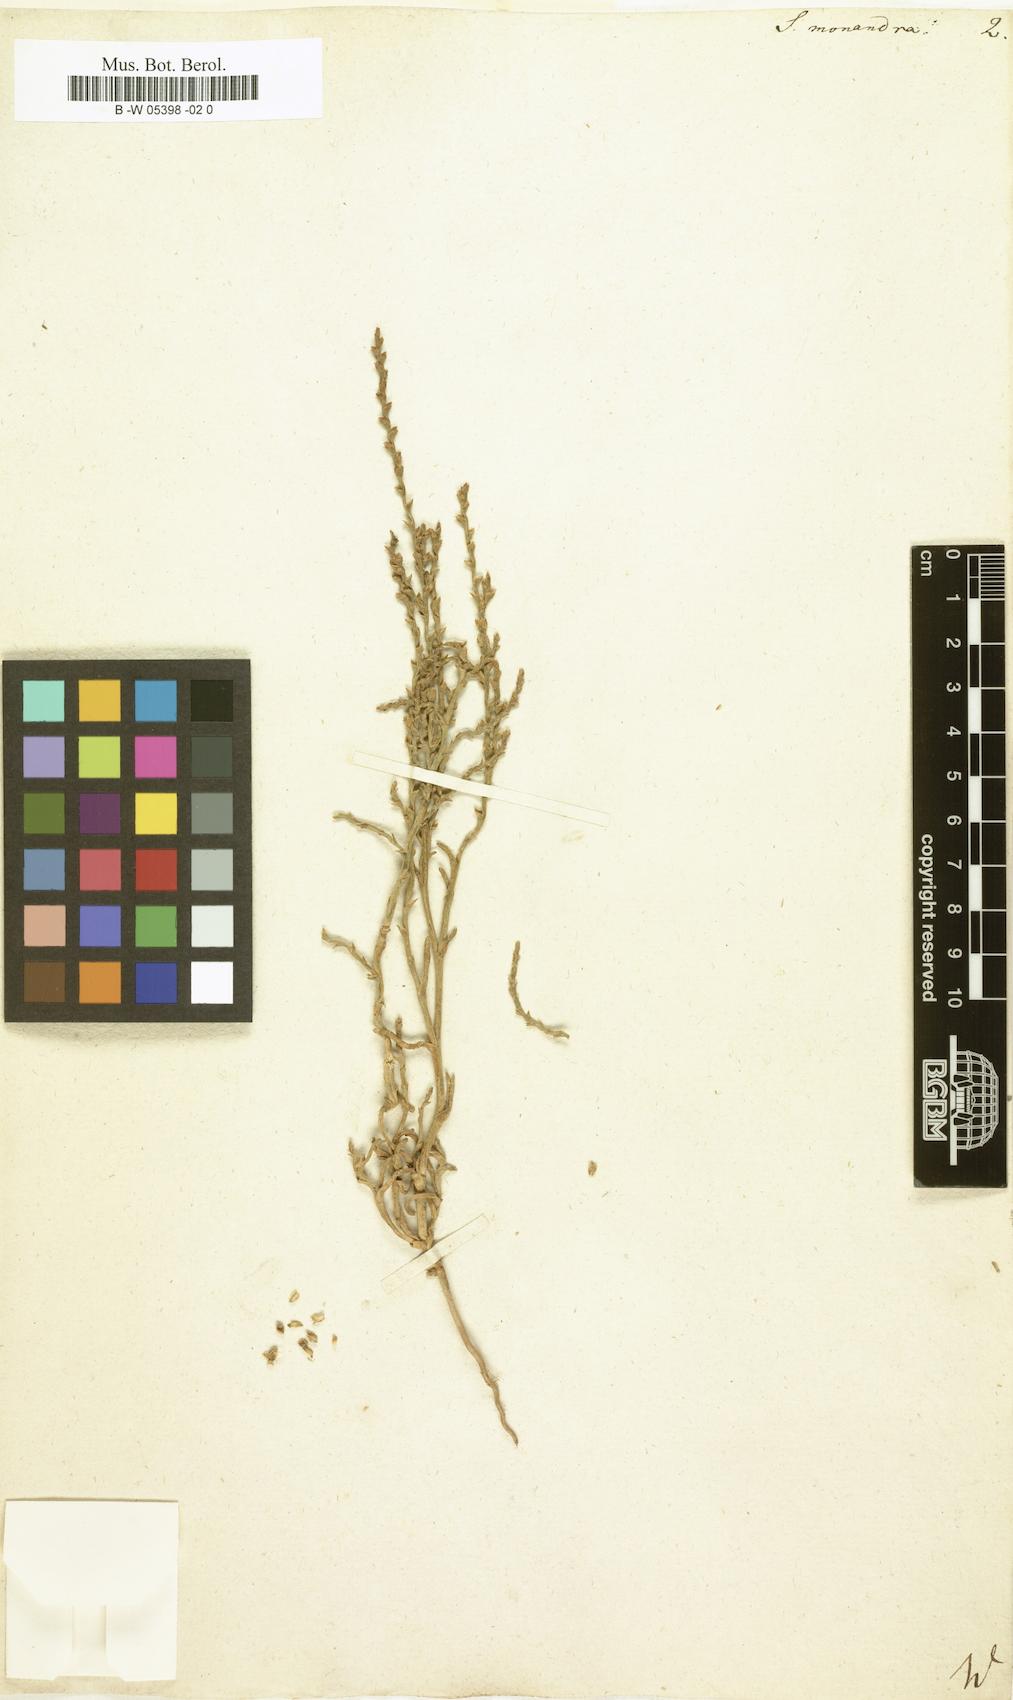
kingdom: Plantae
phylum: Tracheophyta
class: Magnoliopsida
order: Caryophyllales
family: Amaranthaceae
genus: Ofaiston
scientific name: Ofaiston monandrum
